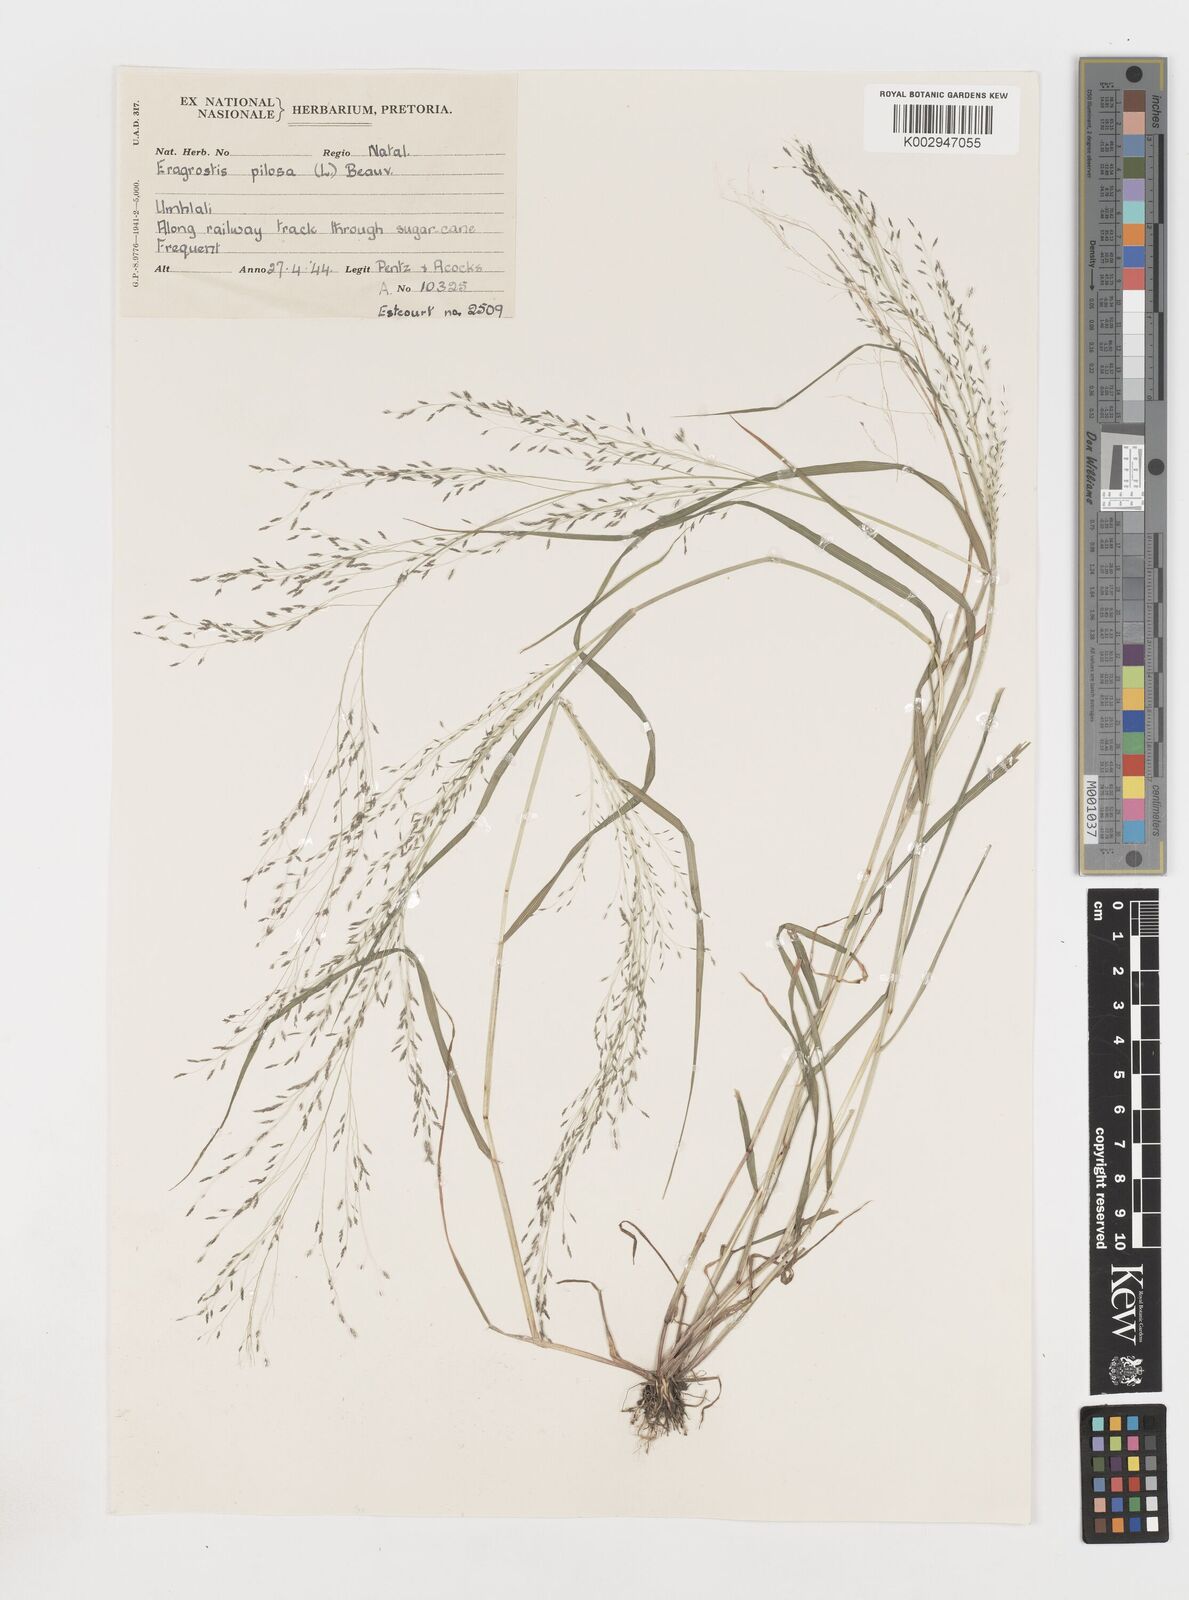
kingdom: Plantae
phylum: Tracheophyta
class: Liliopsida
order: Poales
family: Poaceae
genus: Eragrostis
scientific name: Eragrostis pilosa
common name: Indian lovegrass
